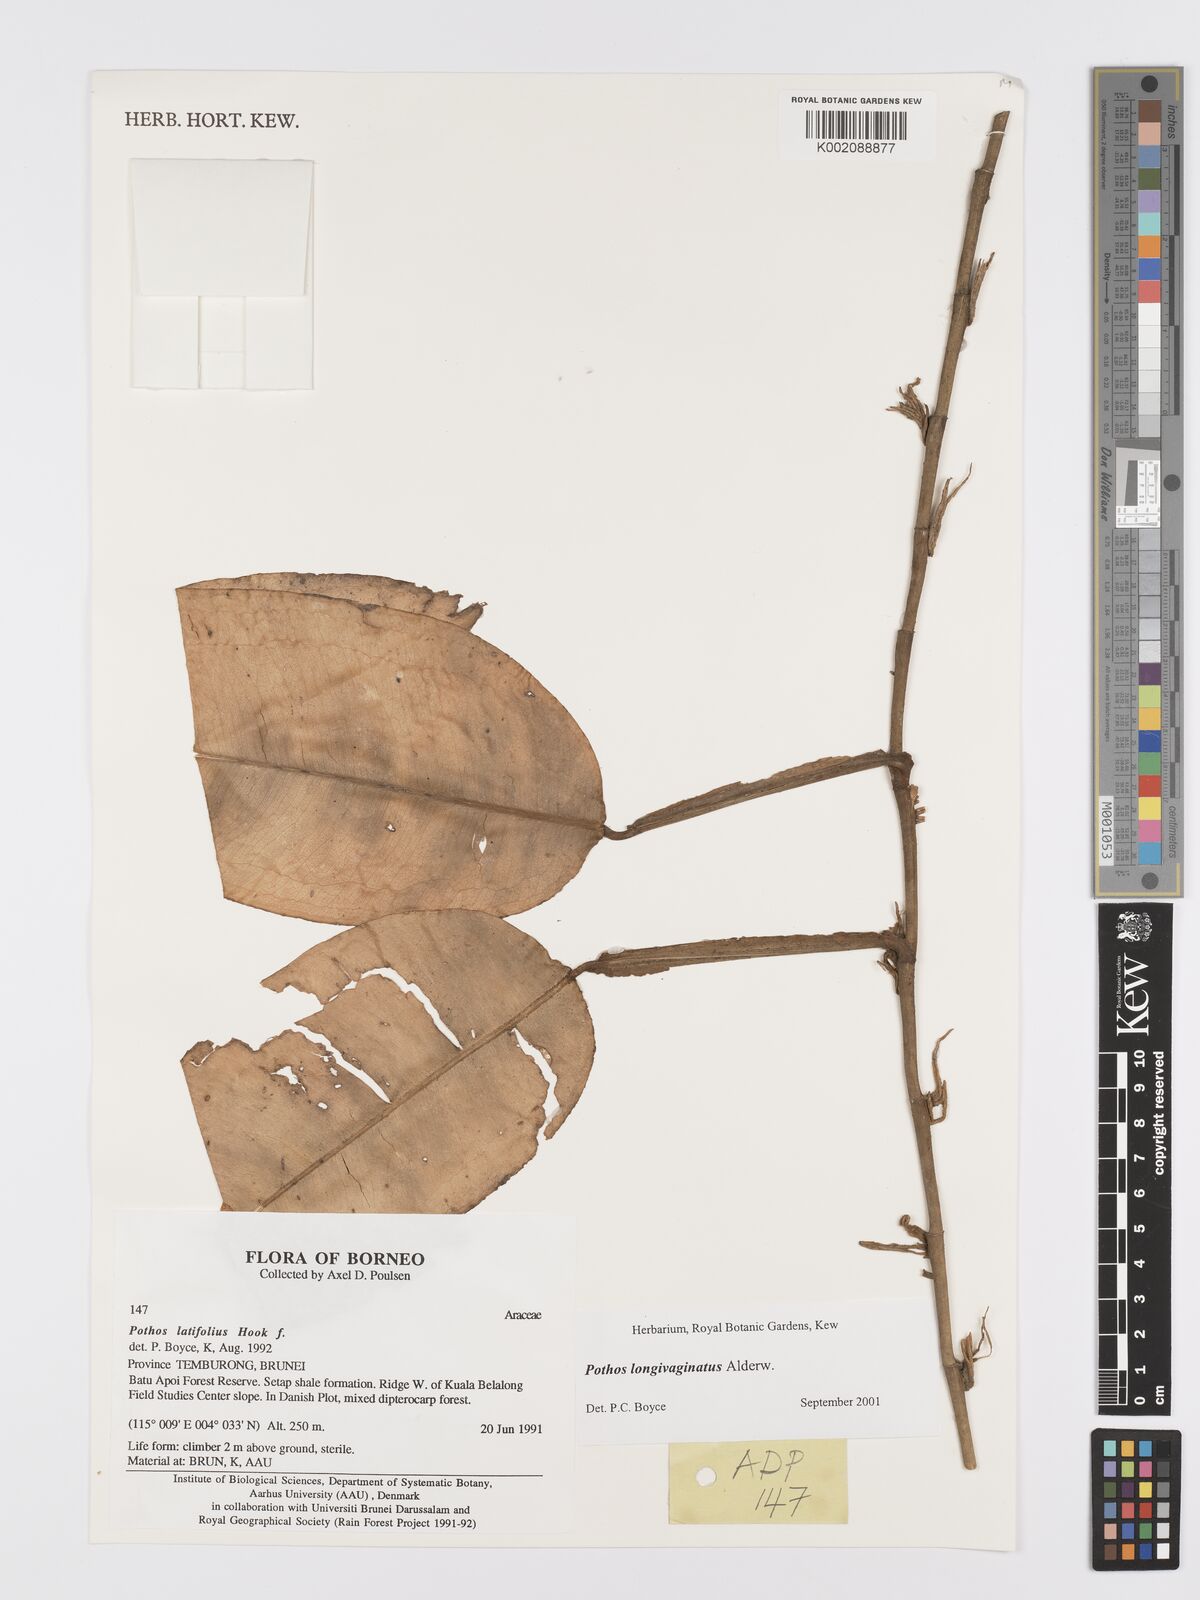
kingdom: Plantae
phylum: Tracheophyta
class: Liliopsida
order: Alismatales
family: Araceae
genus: Pothos
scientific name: Pothos longivaginatus
